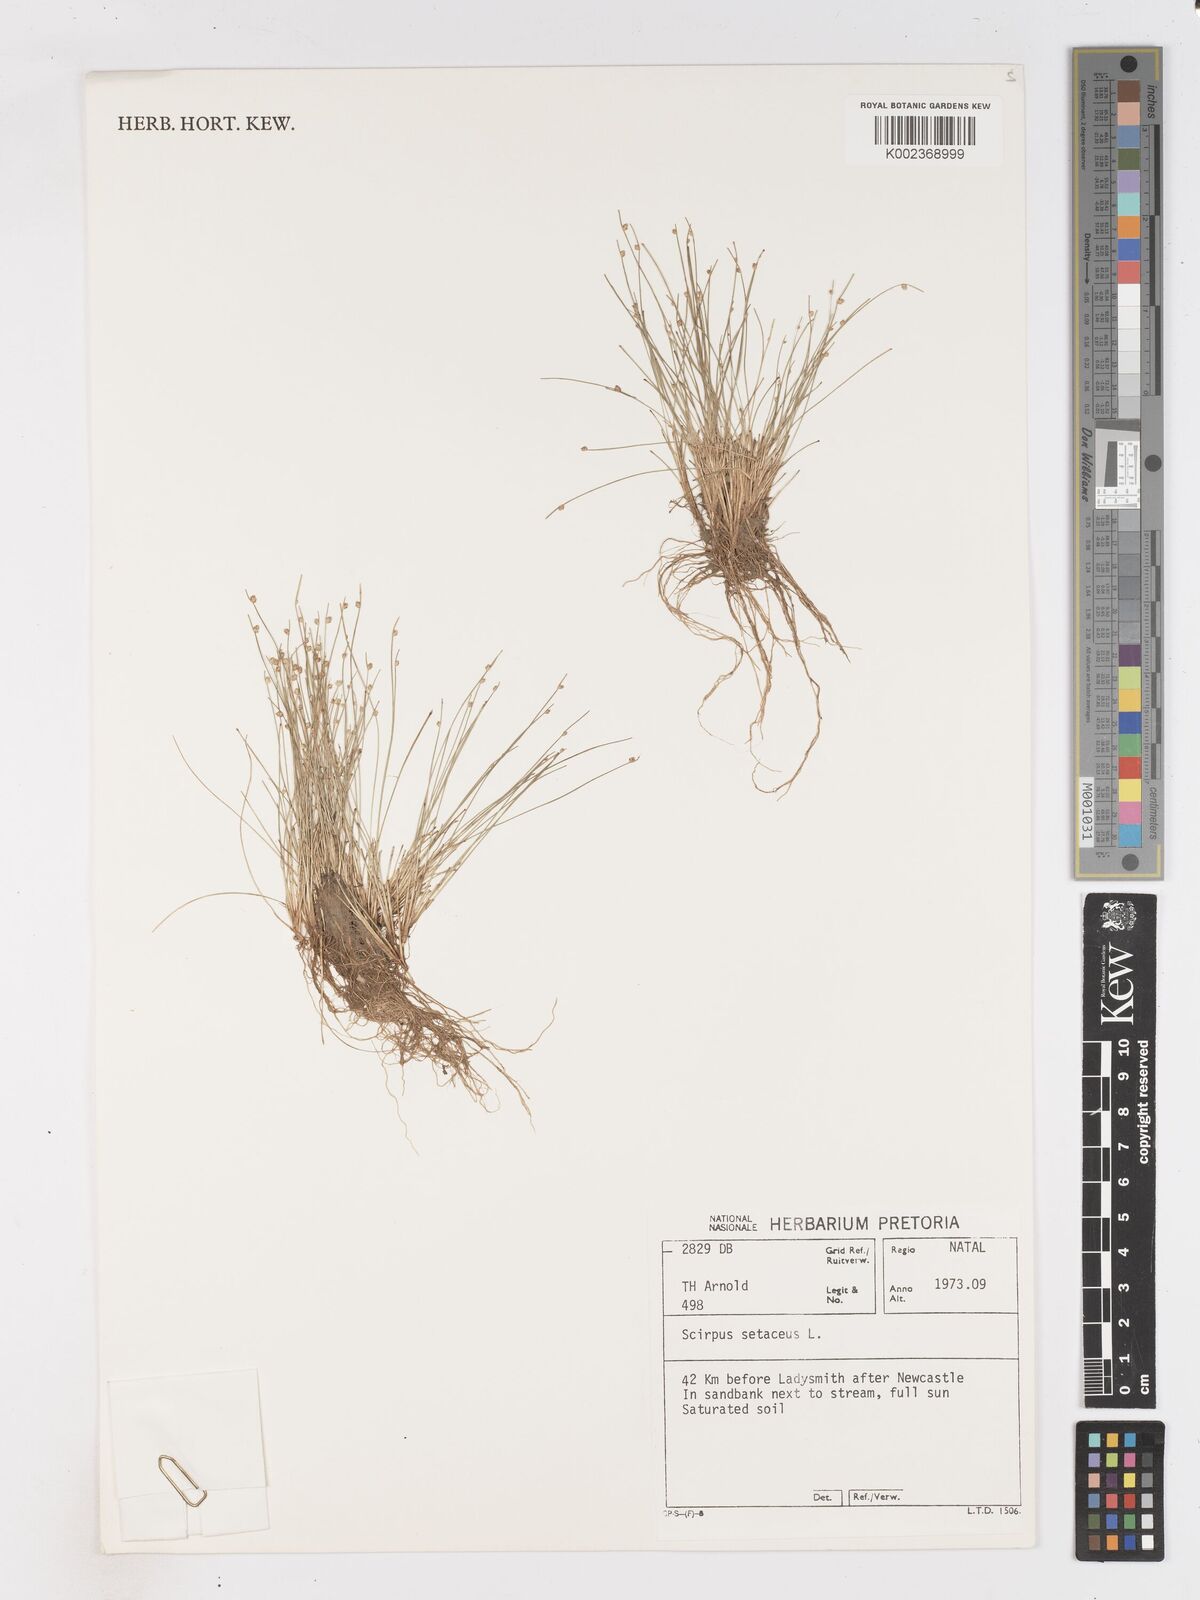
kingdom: Plantae
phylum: Tracheophyta
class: Liliopsida
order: Poales
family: Cyperaceae
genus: Isolepis
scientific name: Isolepis setacea
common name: Bristle club-rush
